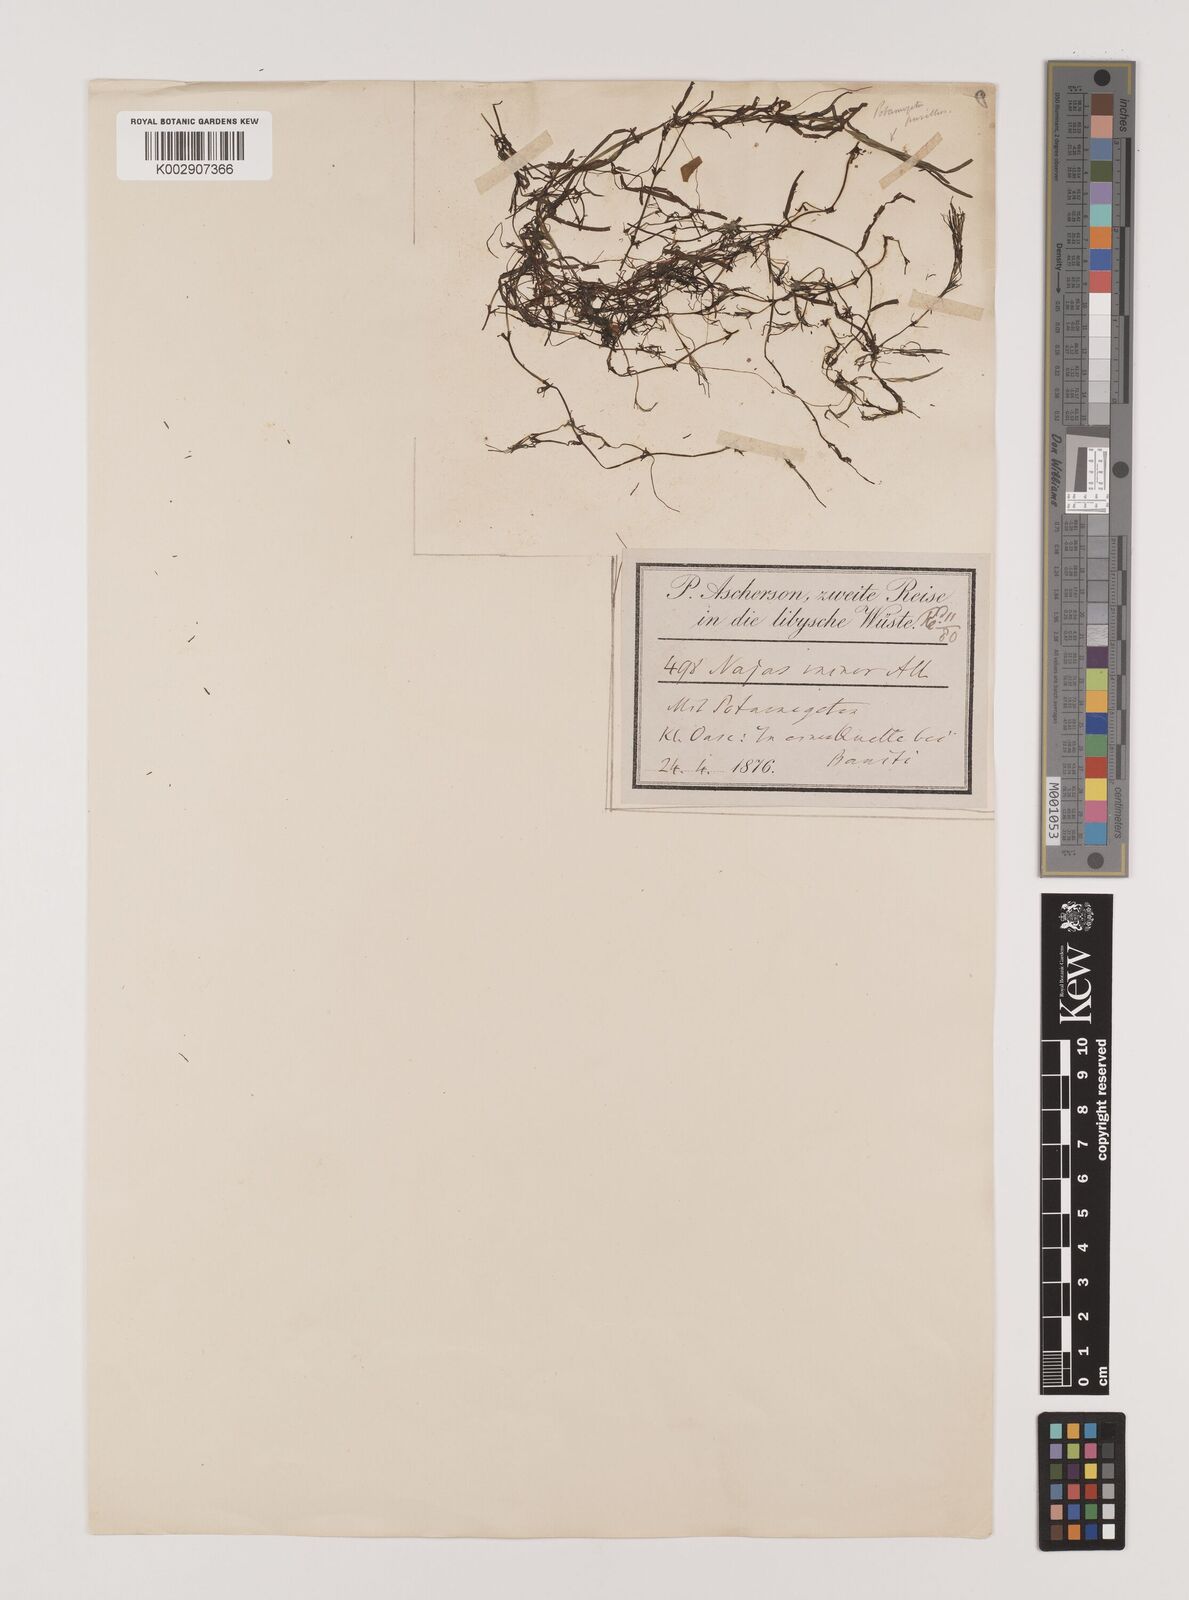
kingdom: Plantae
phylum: Tracheophyta
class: Liliopsida
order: Alismatales
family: Hydrocharitaceae
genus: Najas
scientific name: Najas minor
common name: Brittle naiad
